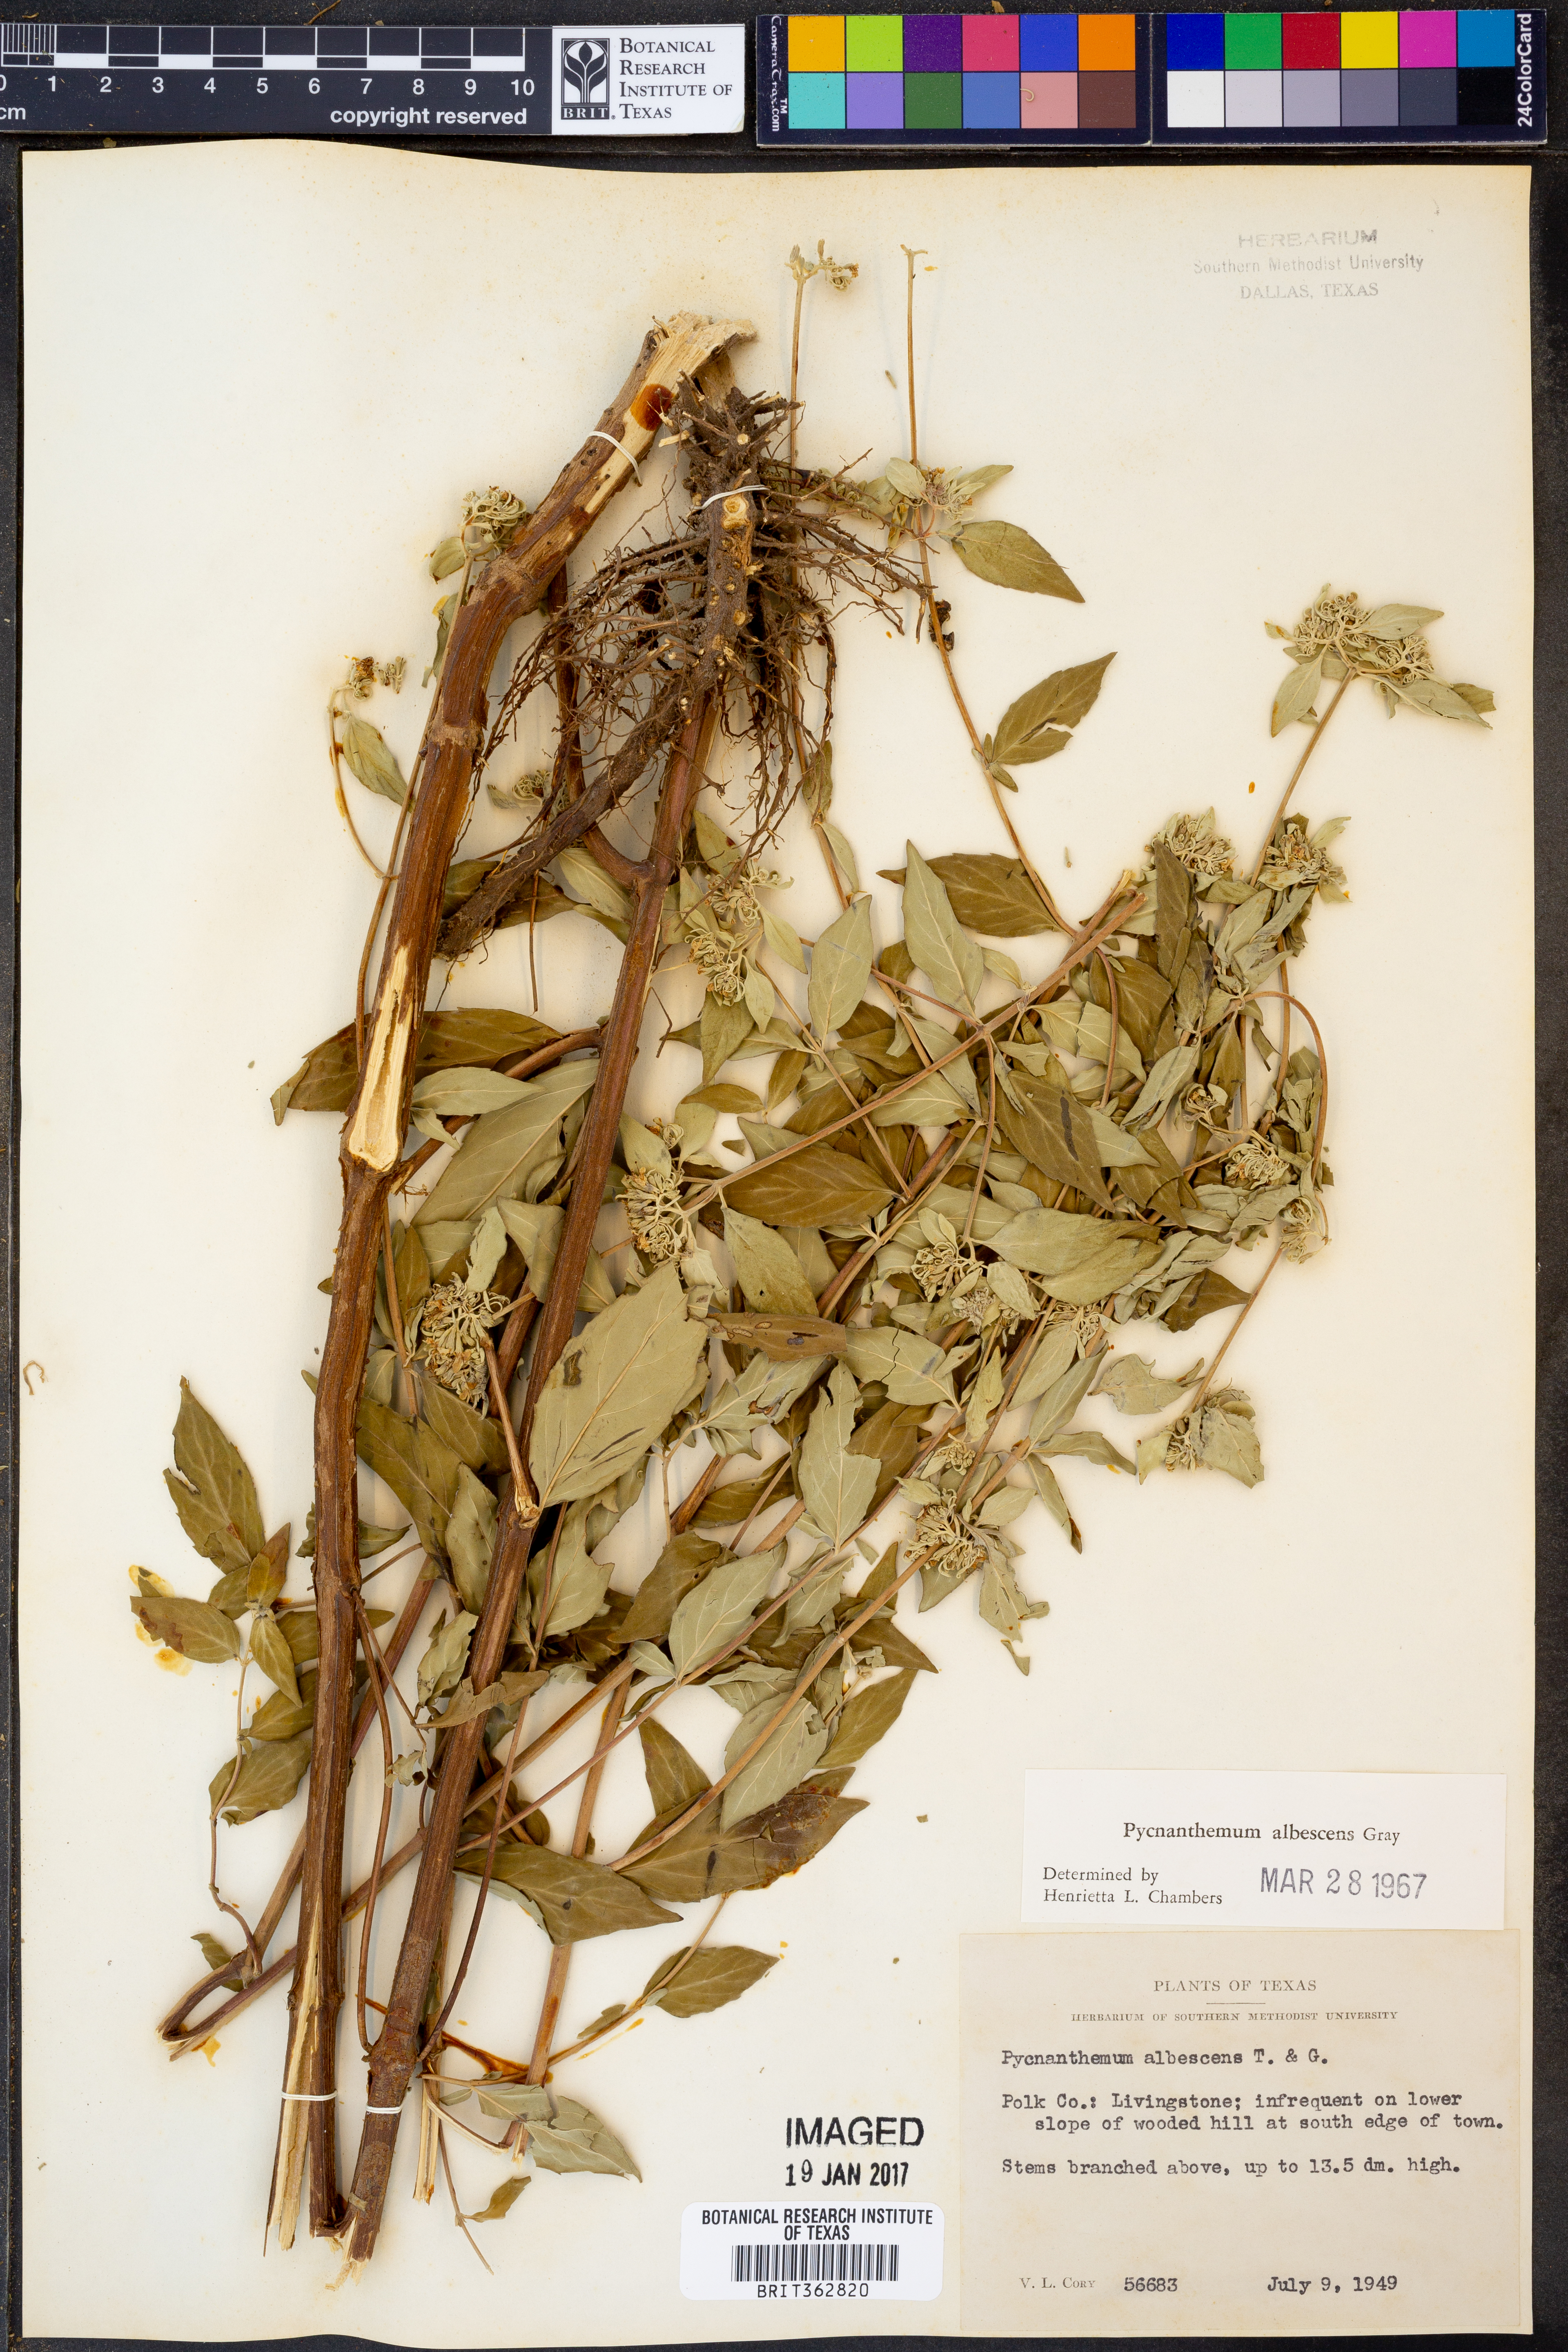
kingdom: Plantae
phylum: Tracheophyta
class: Magnoliopsida
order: Lamiales
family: Lamiaceae
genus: Pycnanthemum
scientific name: Pycnanthemum albescens
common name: White-leaf mountain-mint
